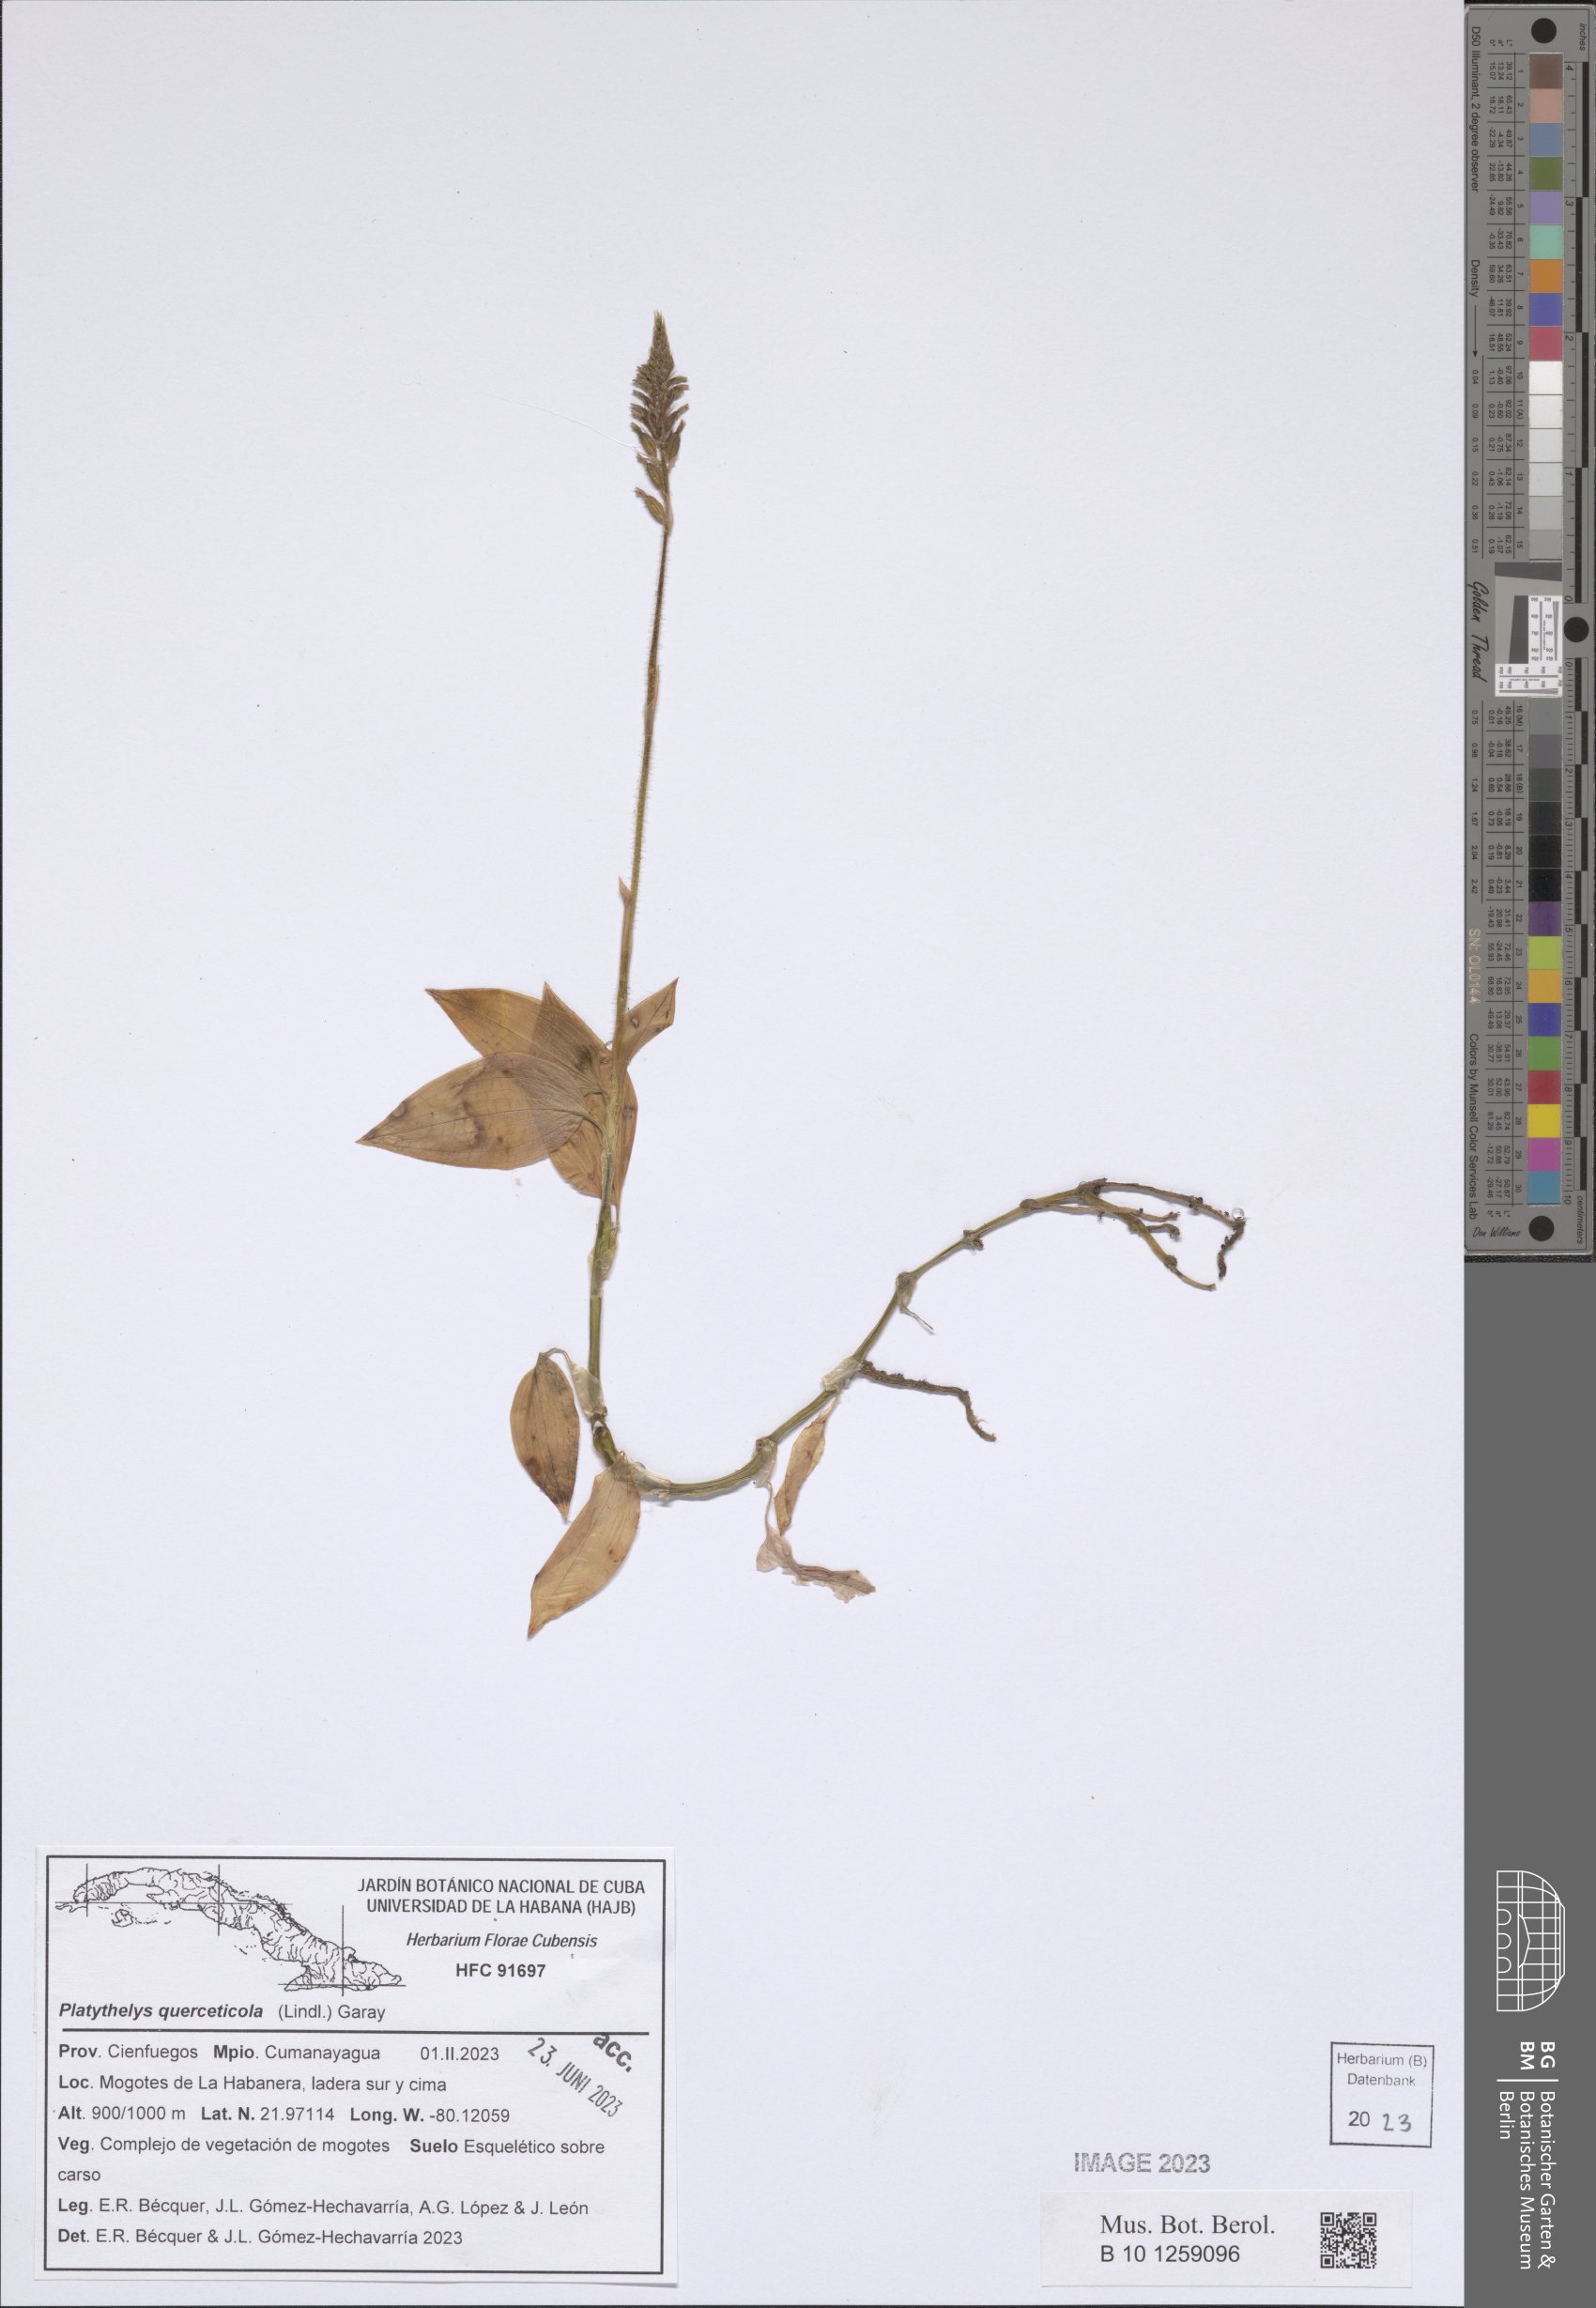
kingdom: Plantae
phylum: Tracheophyta
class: Liliopsida
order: Asparagales
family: Orchidaceae
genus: Aspidogyne
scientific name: Aspidogyne querceticola
